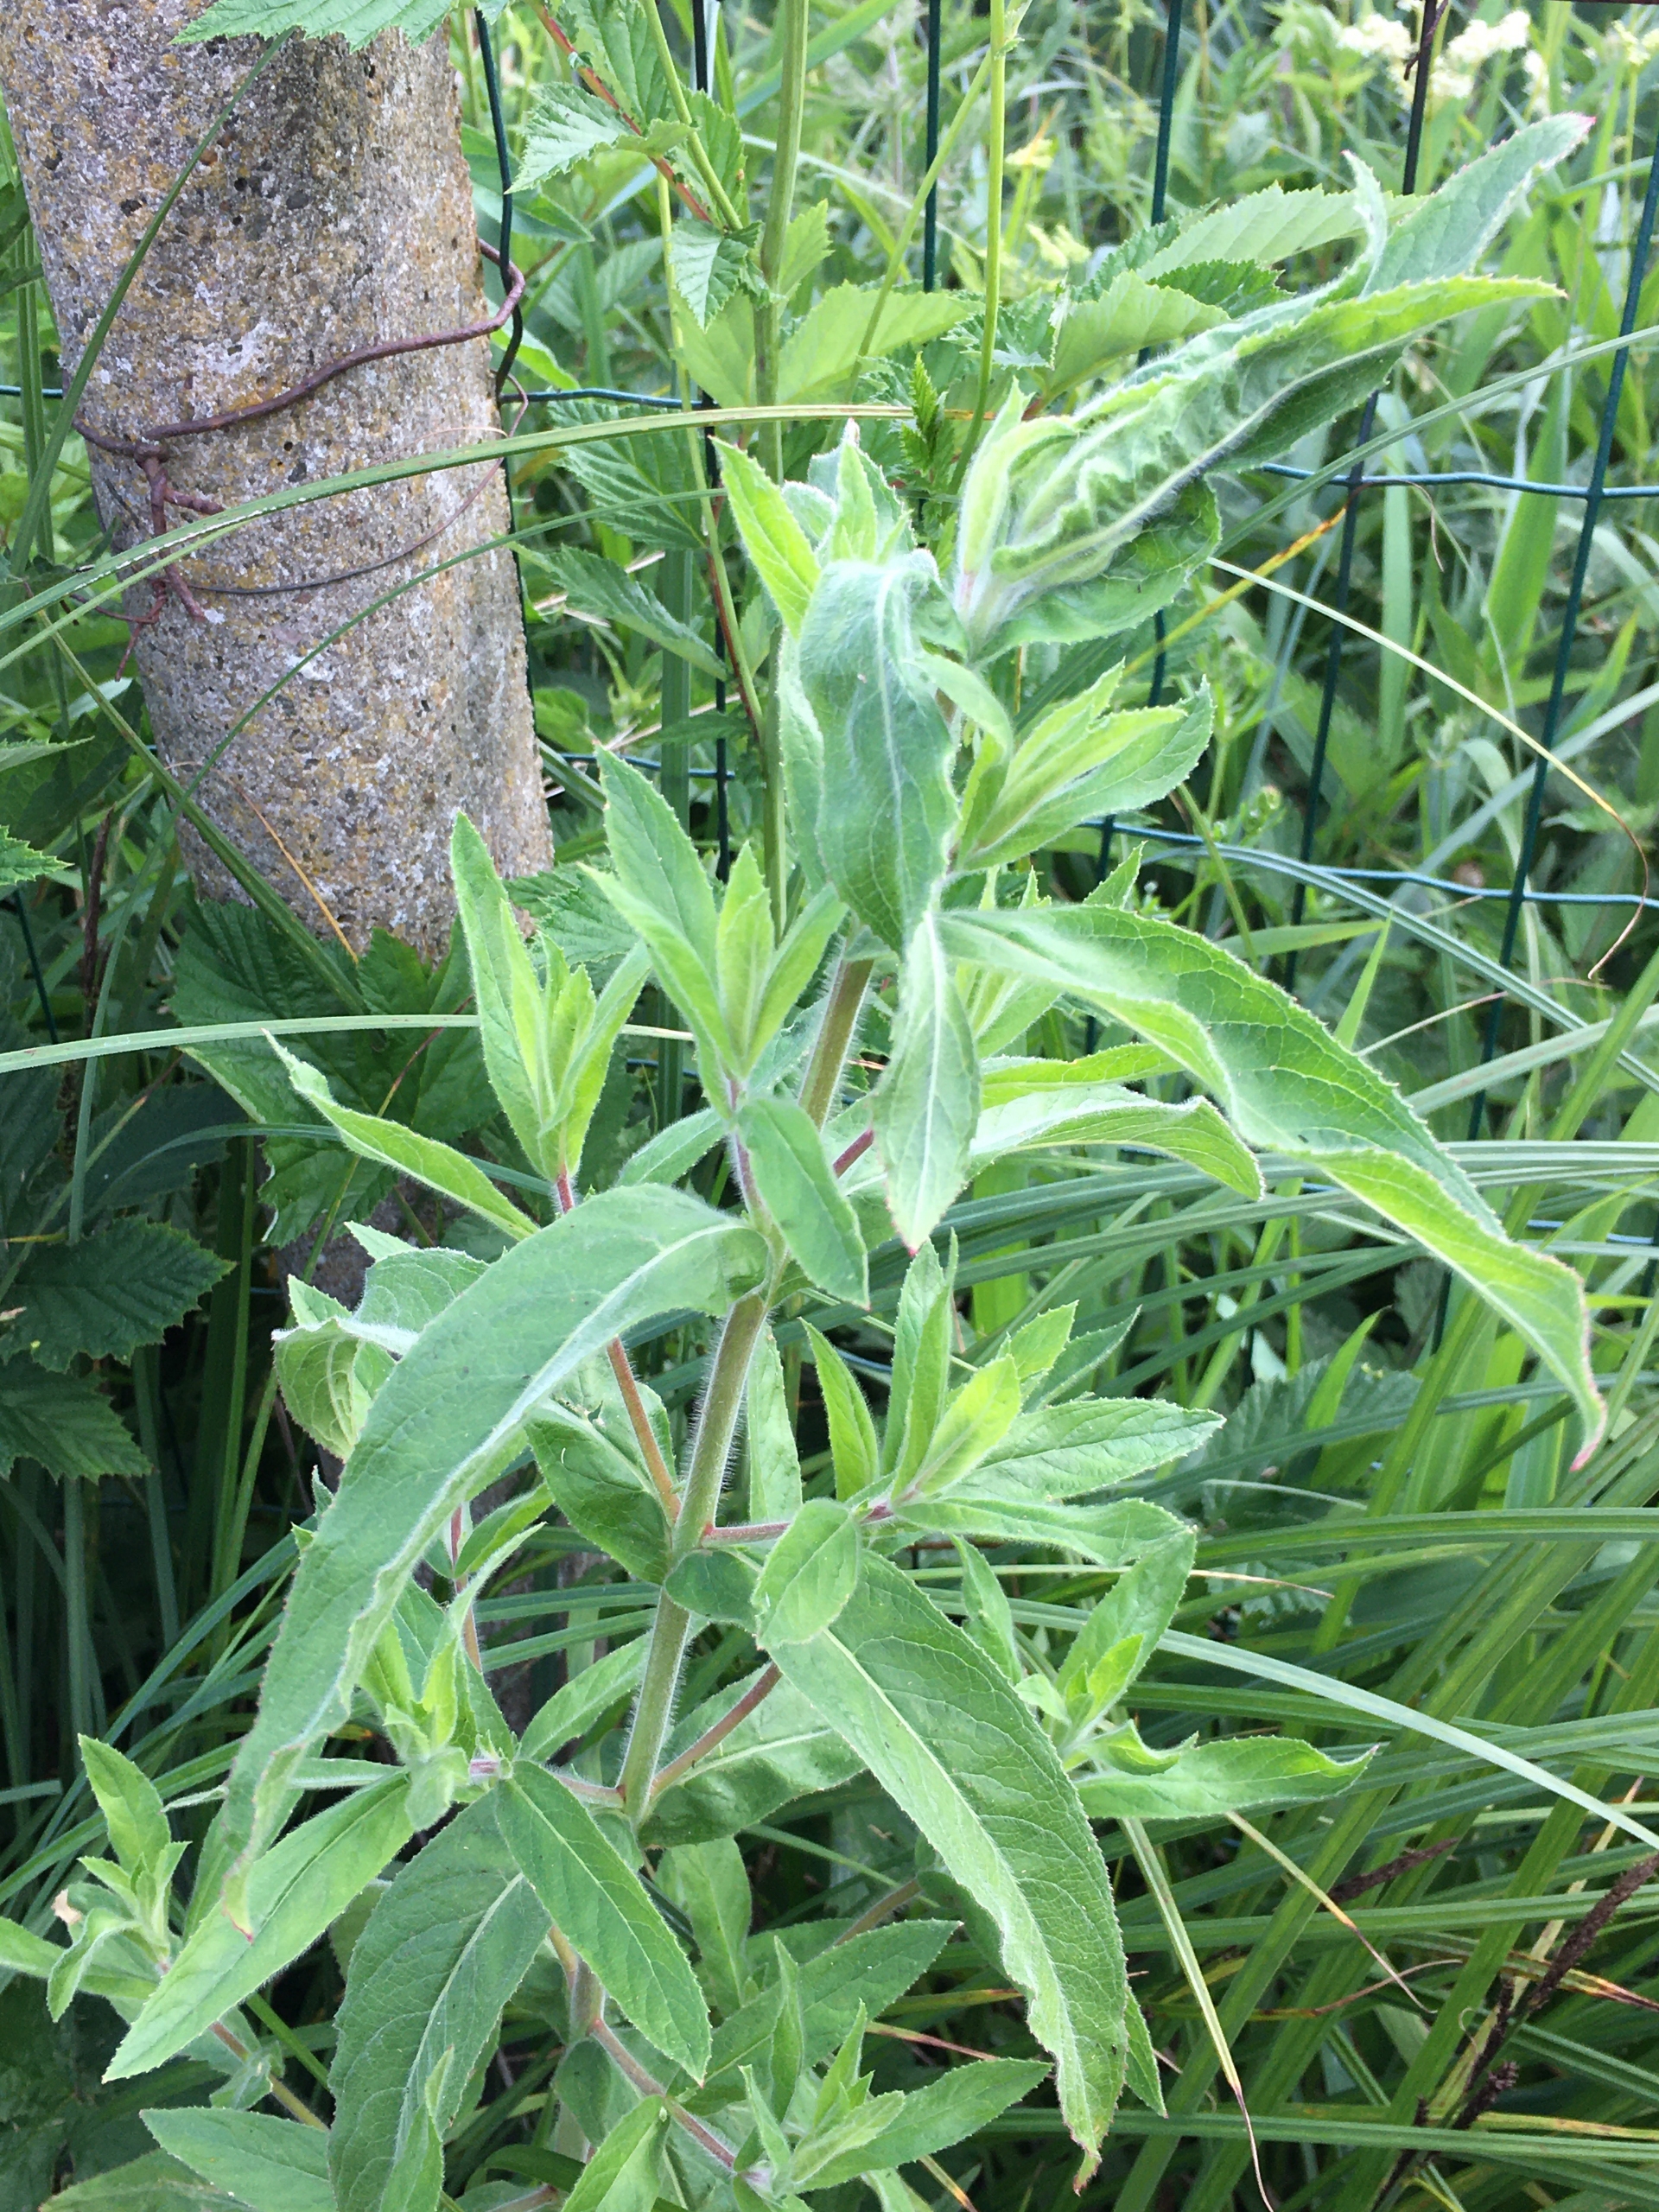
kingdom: Plantae
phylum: Tracheophyta
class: Magnoliopsida
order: Myrtales
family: Onagraceae
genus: Epilobium
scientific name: Epilobium hirsutum
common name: Lådden dueurt
